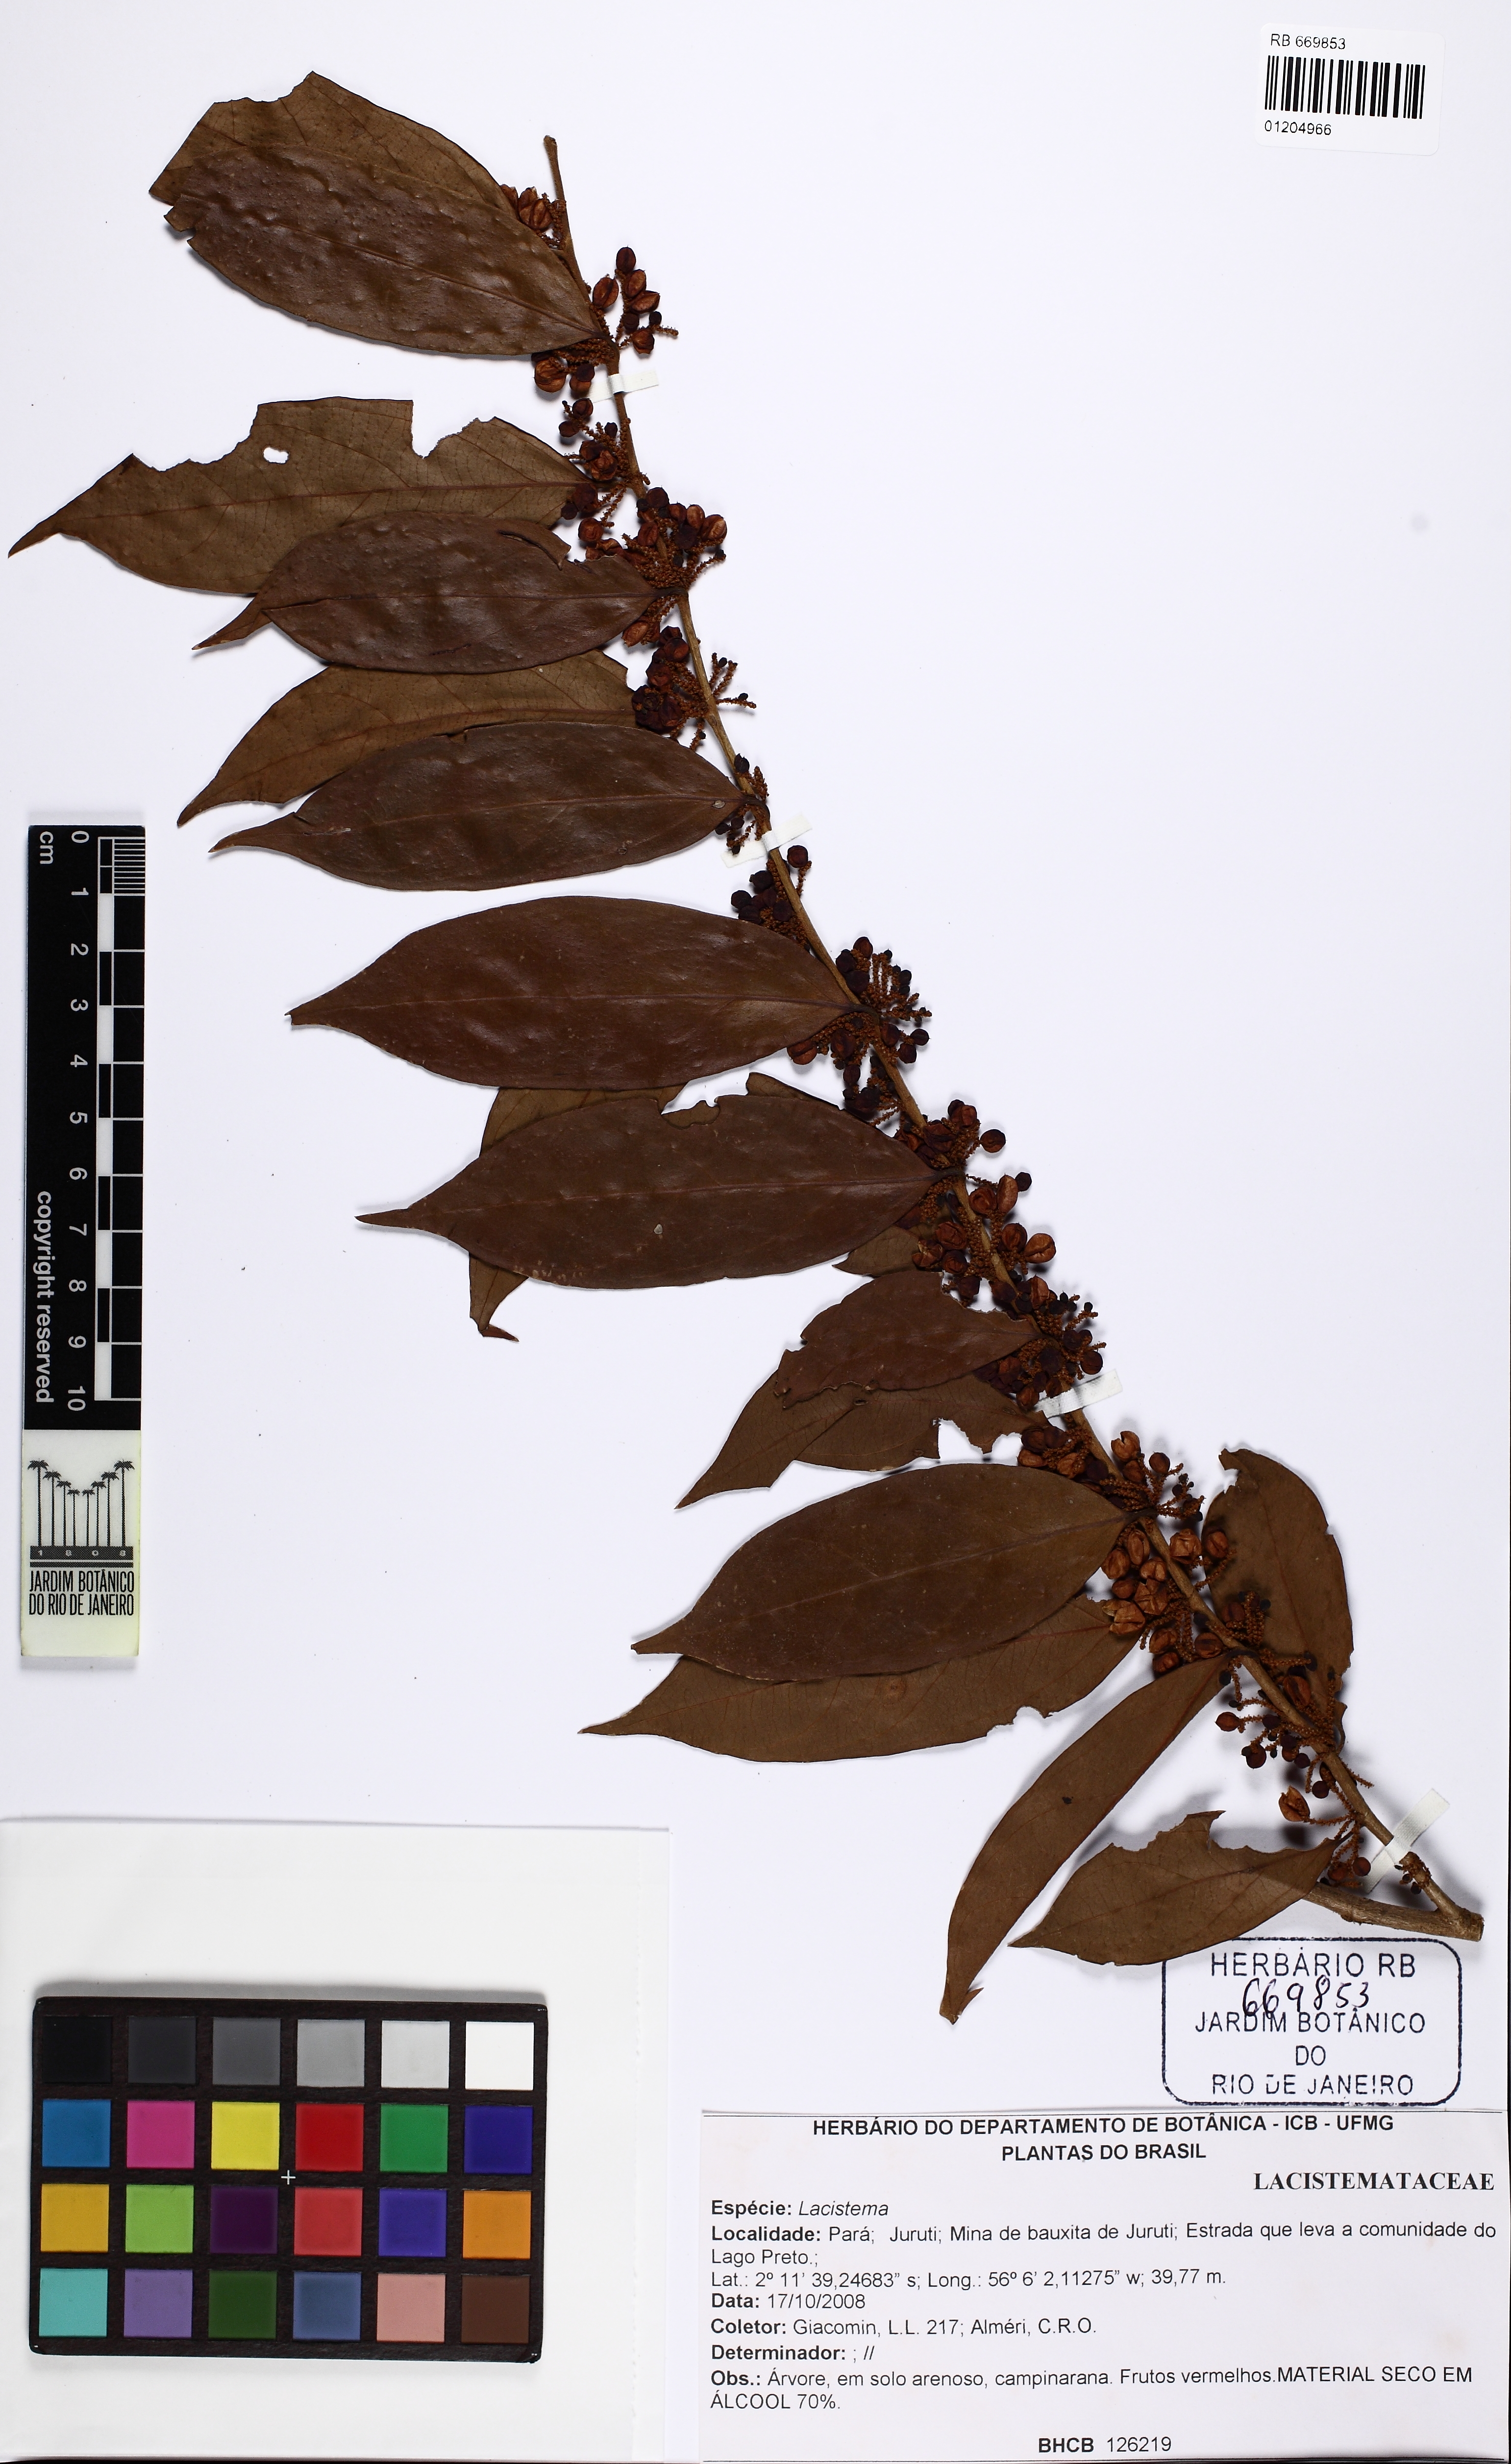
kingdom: Plantae
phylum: Tracheophyta
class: Magnoliopsida
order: Malpighiales
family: Lacistemataceae
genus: Lacistema
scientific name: Lacistema
